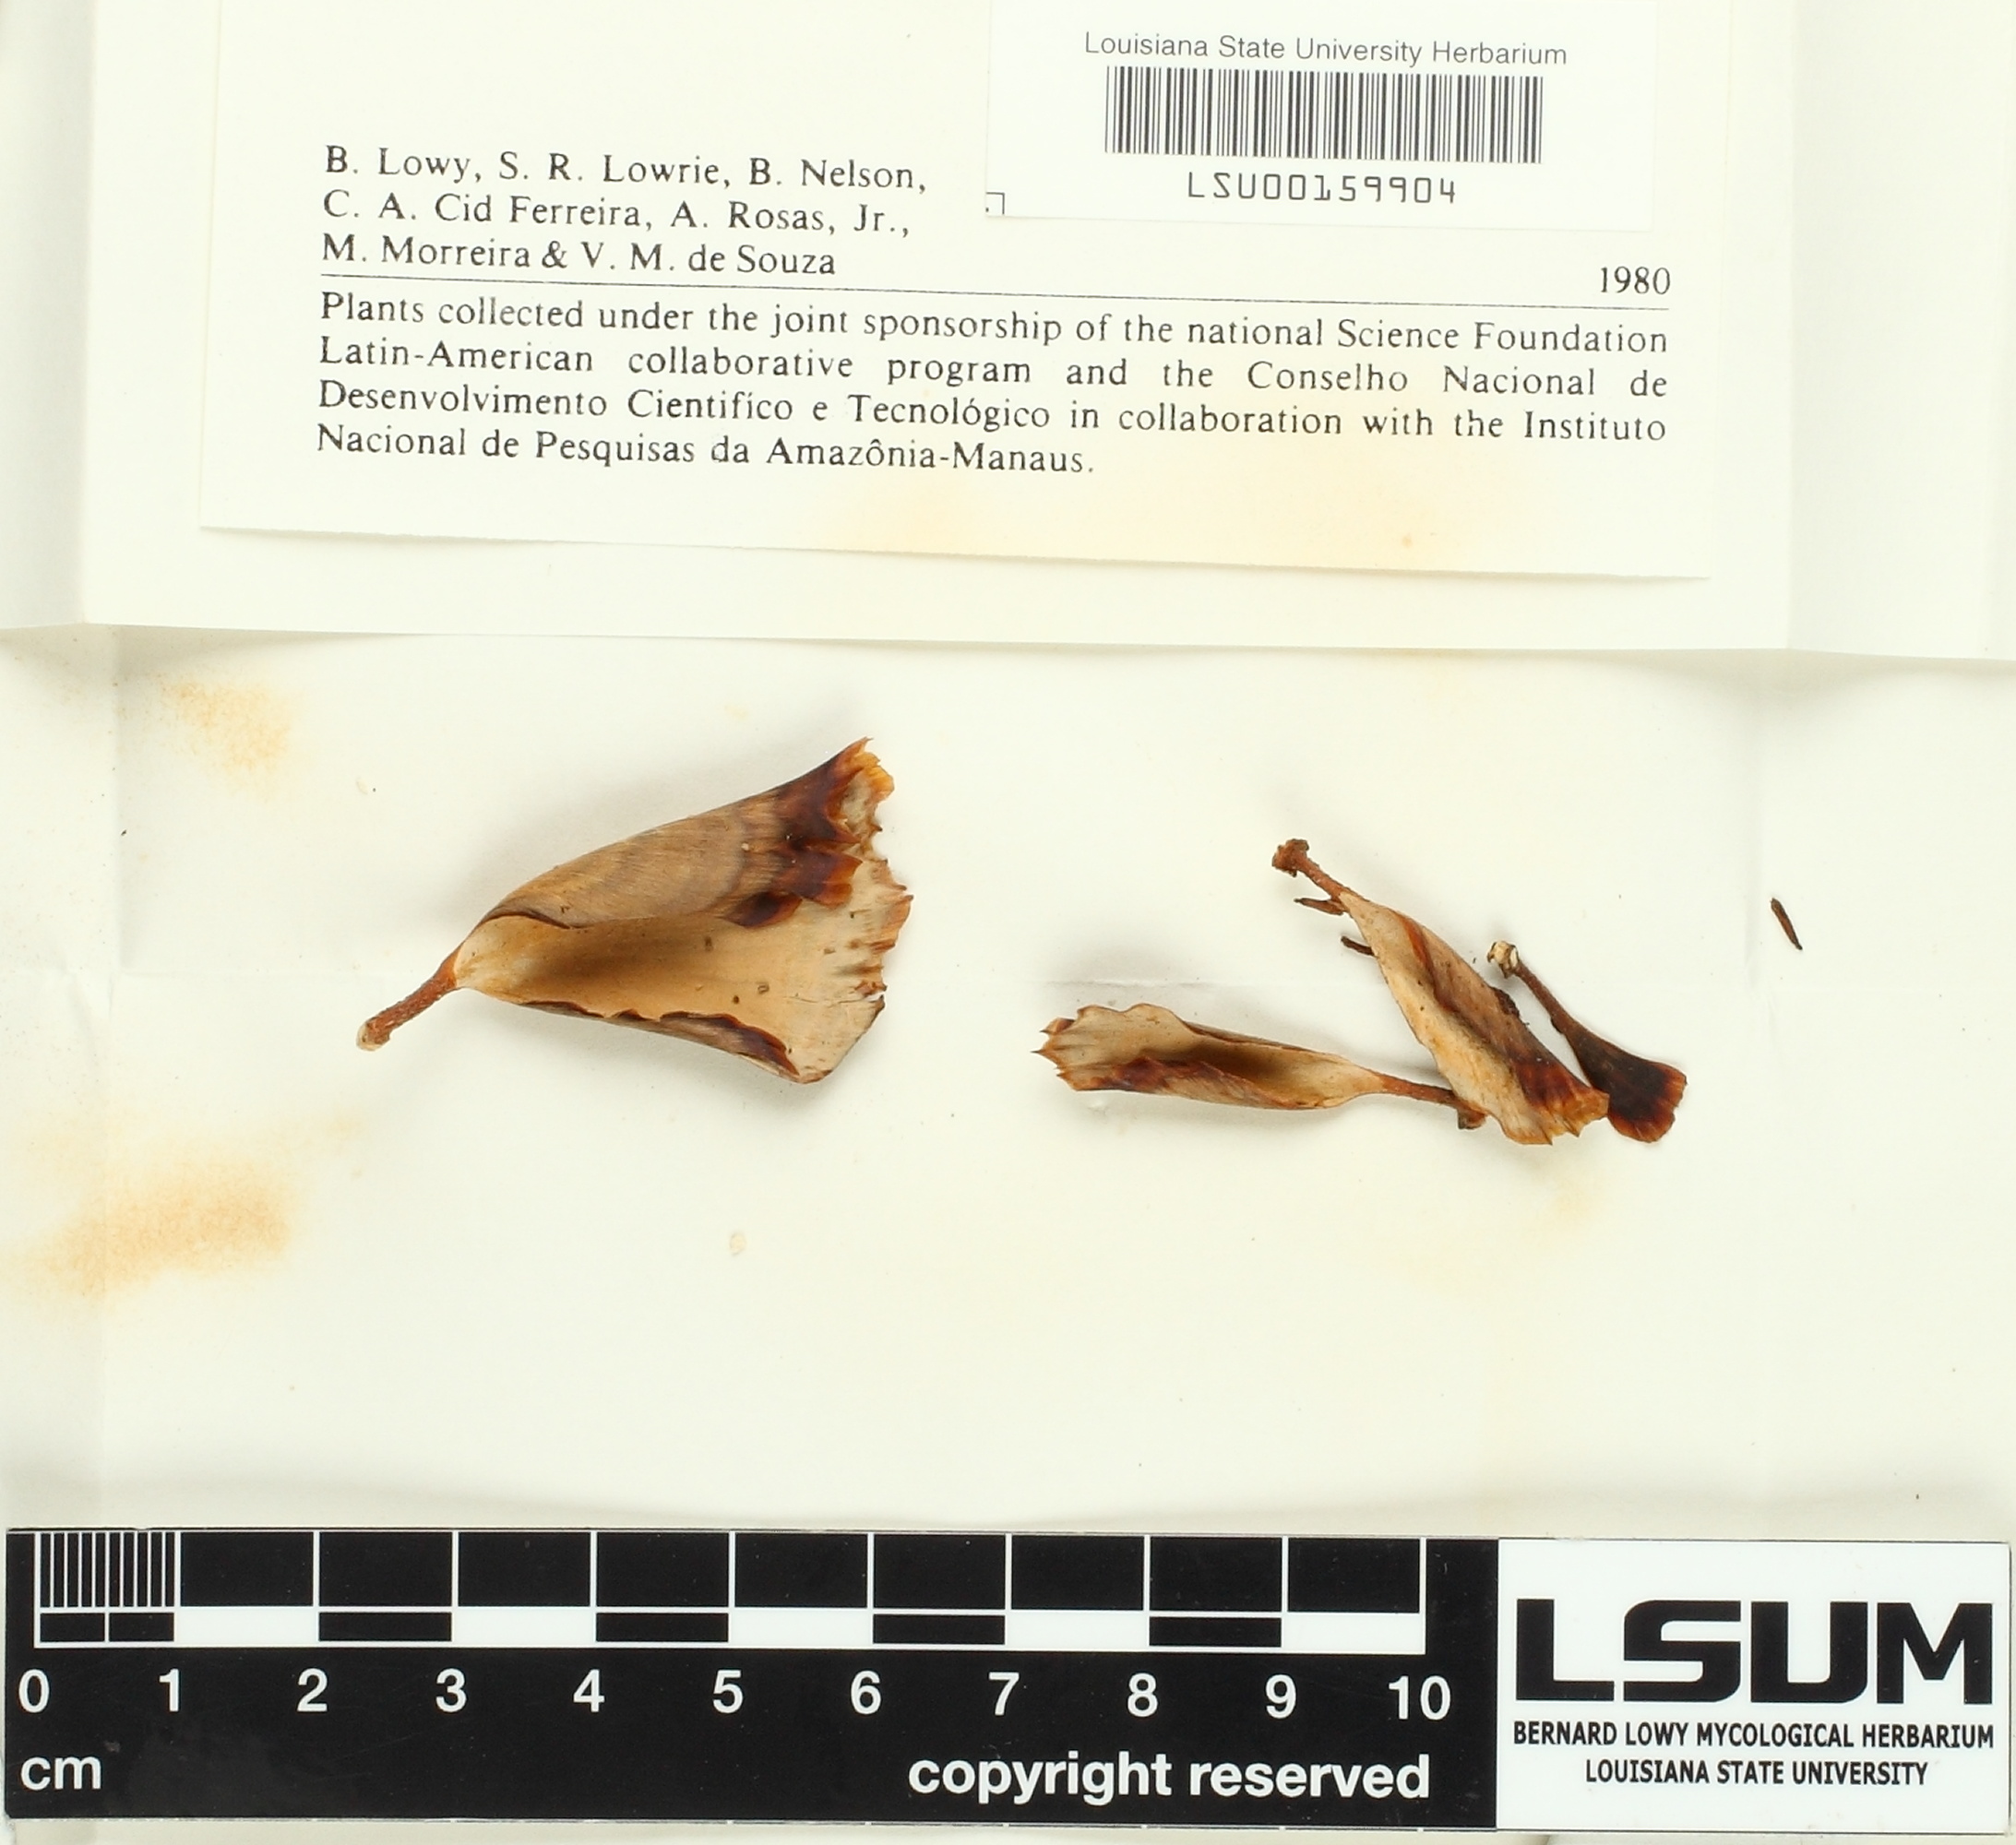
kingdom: Fungi
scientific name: Fungi
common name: Fungi
